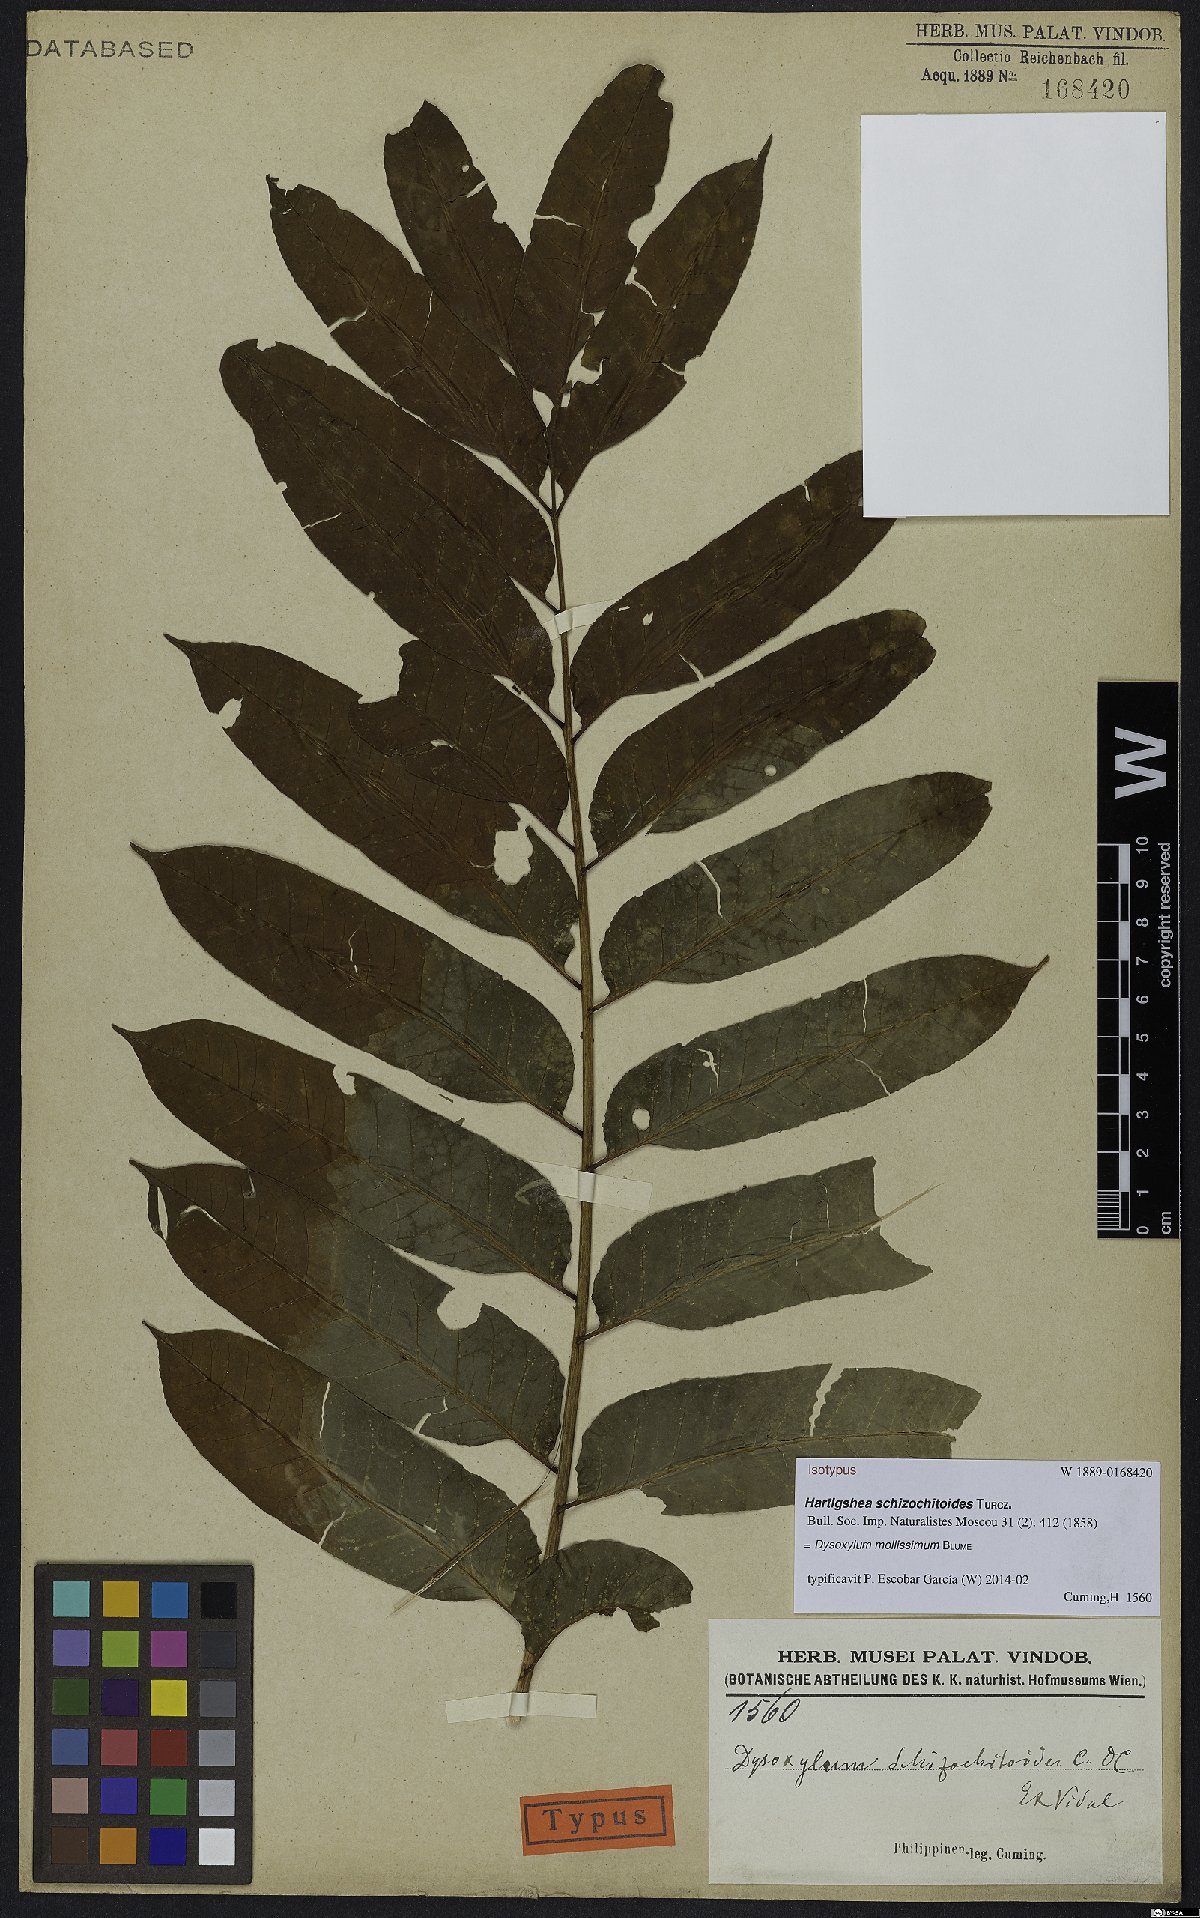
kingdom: Plantae
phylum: Tracheophyta
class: Magnoliopsida
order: Sapindales
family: Meliaceae
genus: Dysoxylum
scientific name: Dysoxylum mollissimum
